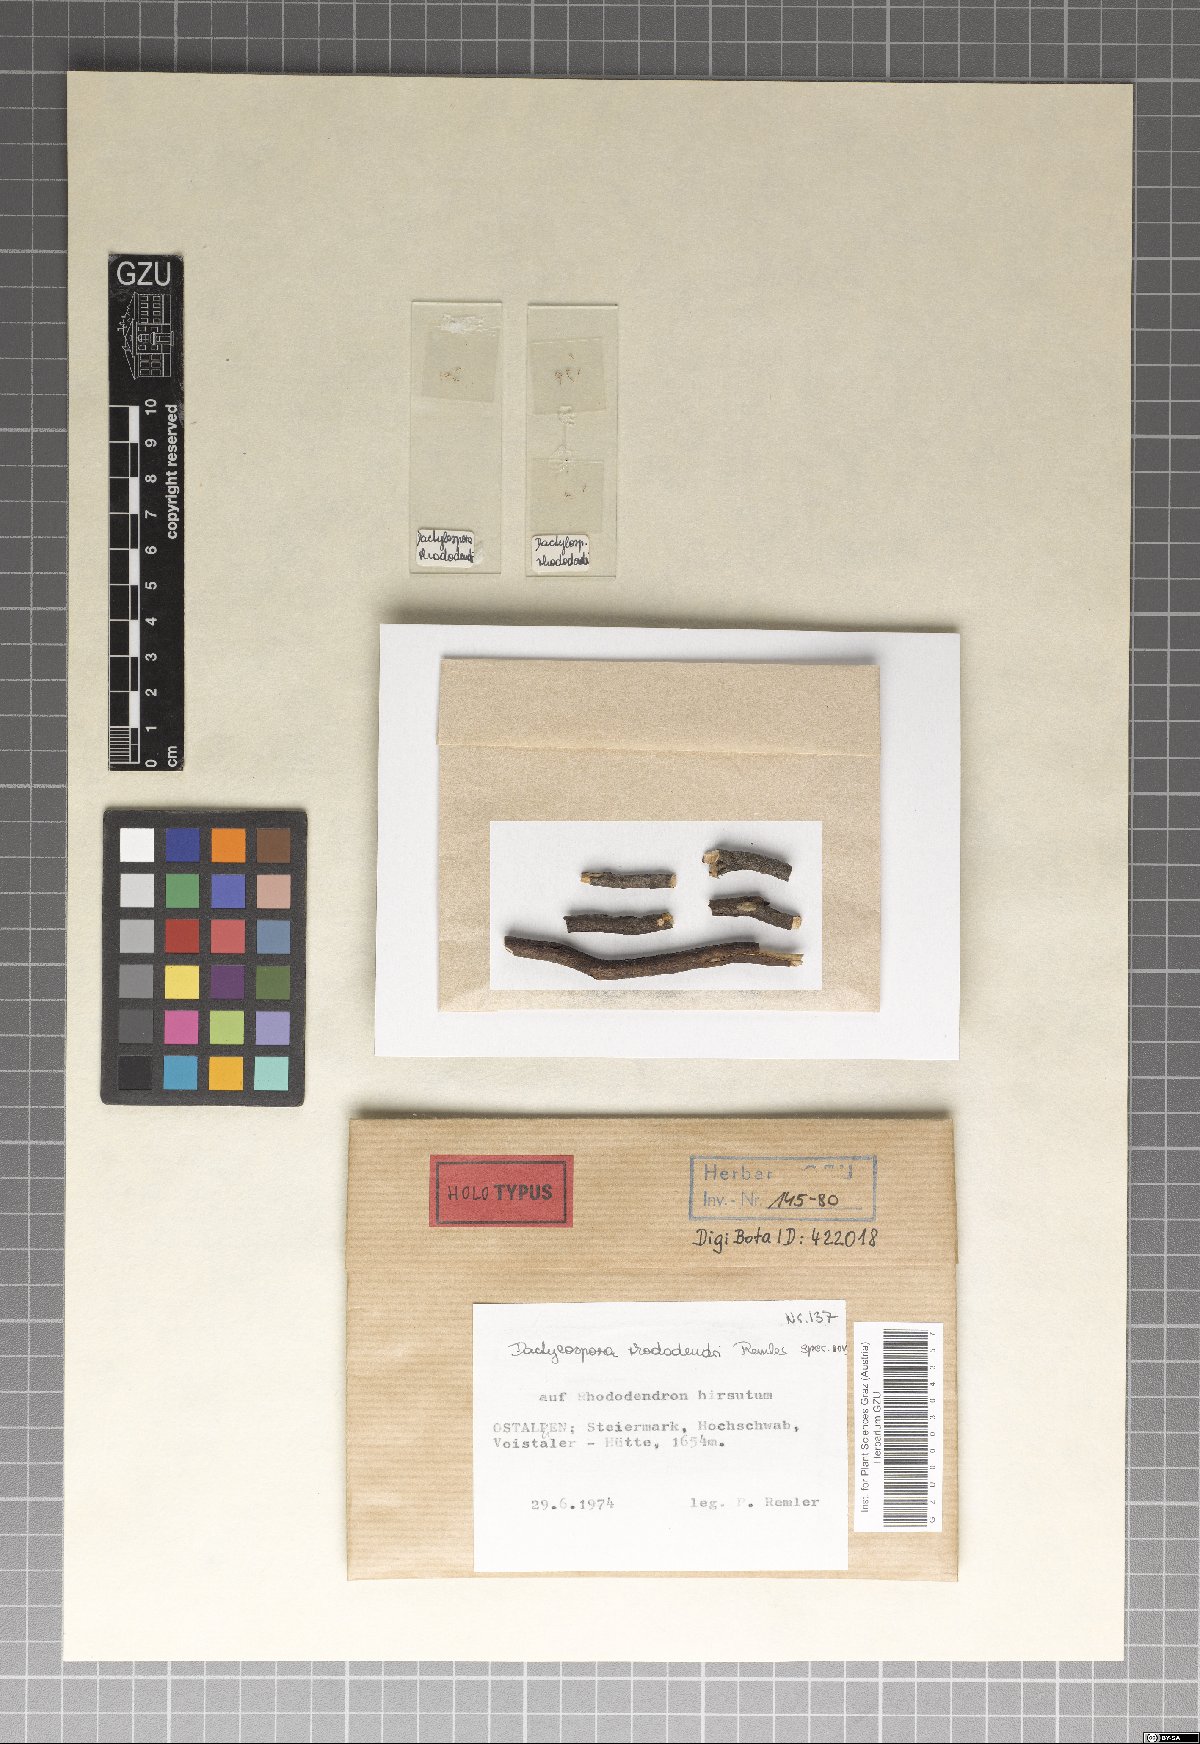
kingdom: Fungi
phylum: Ascomycota
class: Lecanoromycetes
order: Lecanorales
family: Dactylosporaceae
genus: Dactylospora
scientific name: Dactylospora
